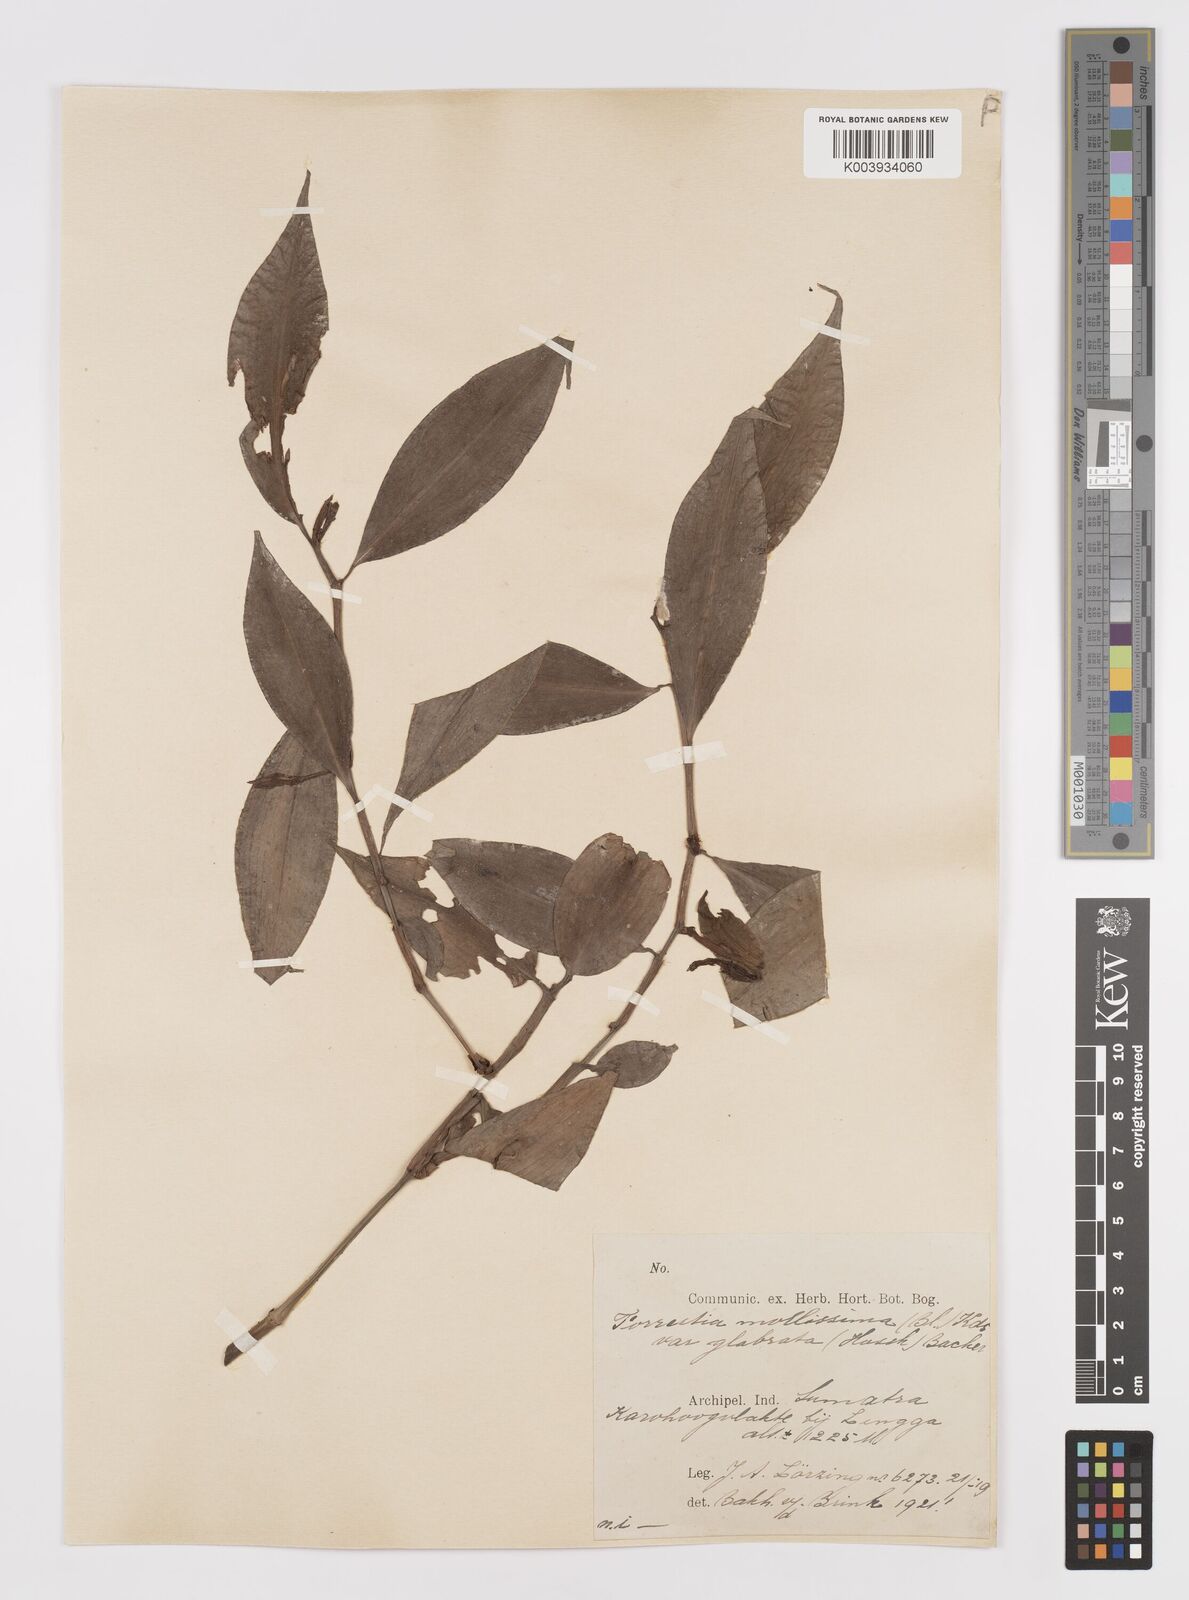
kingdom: Plantae
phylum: Tracheophyta
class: Liliopsida
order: Commelinales
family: Commelinaceae
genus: Amischotolype
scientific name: Amischotolype glabrata
